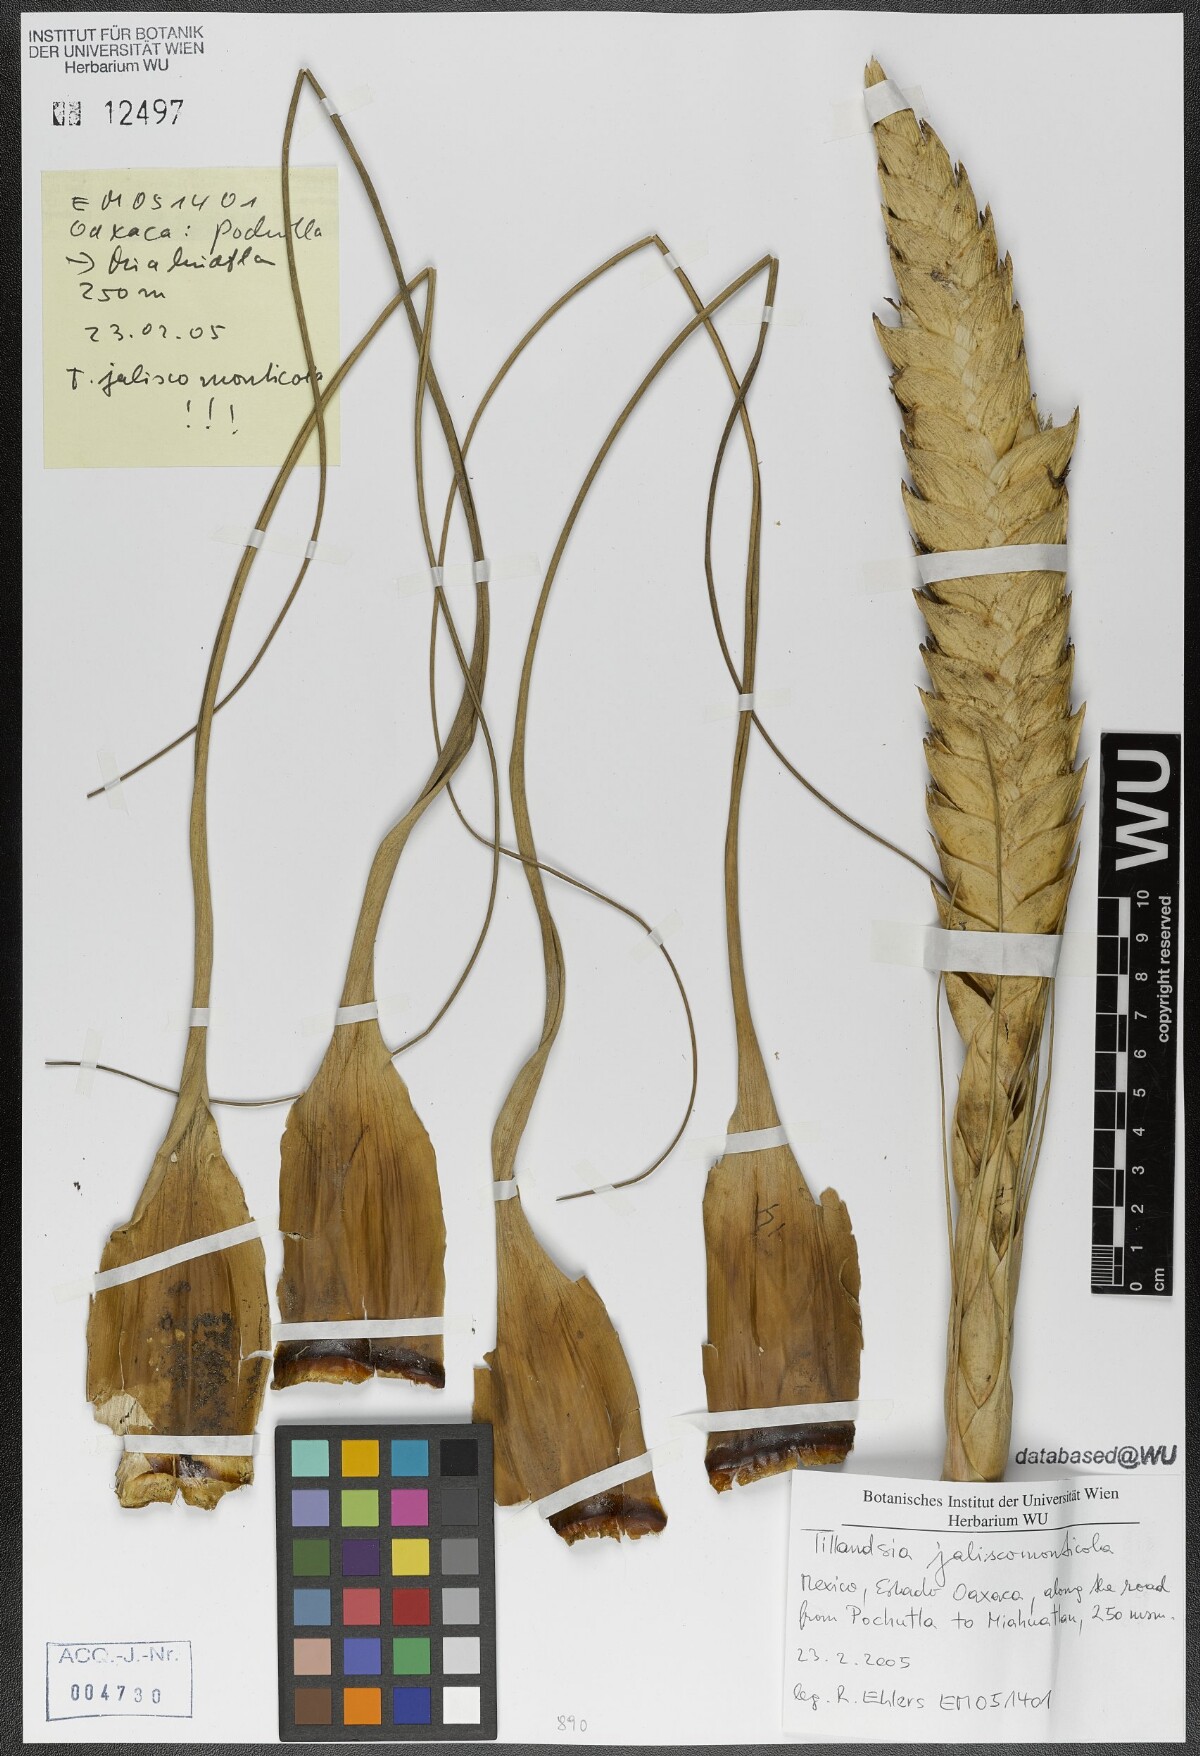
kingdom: Plantae
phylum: Tracheophyta
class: Liliopsida
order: Poales
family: Bromeliaceae
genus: Tillandsia
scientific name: Tillandsia compressa
